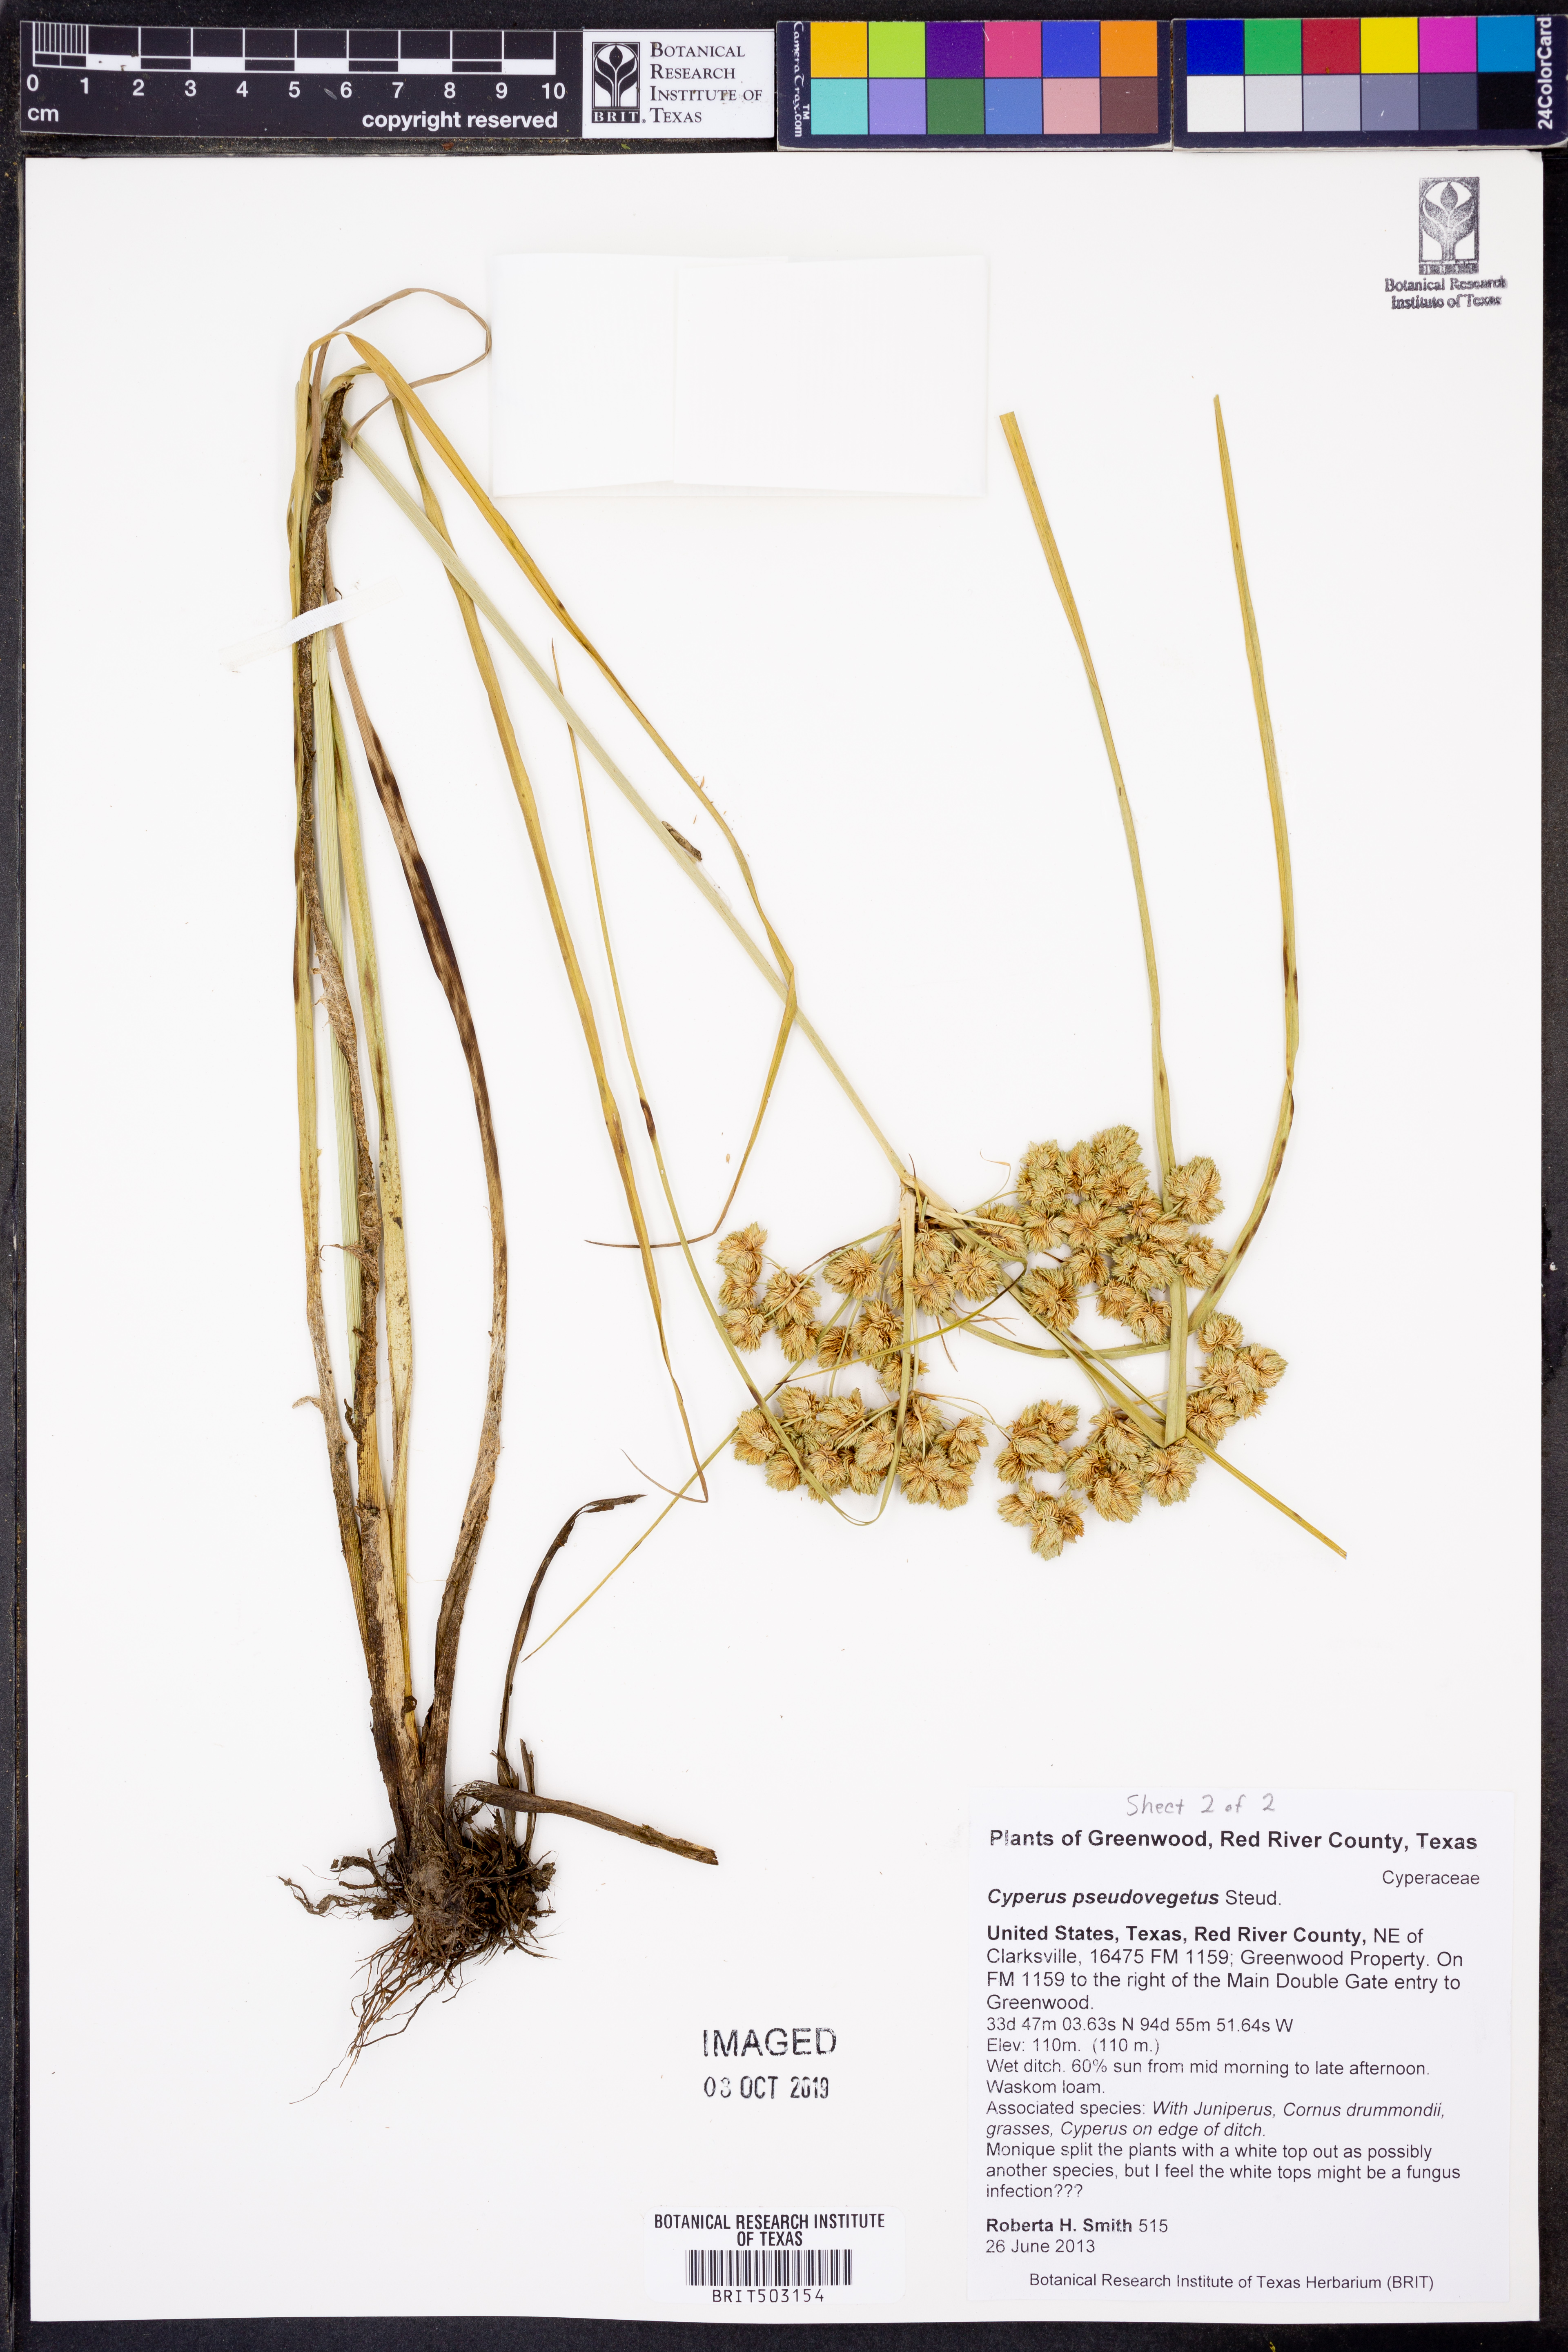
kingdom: Plantae
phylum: Tracheophyta
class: Liliopsida
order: Poales
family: Cyperaceae
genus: Cyperus
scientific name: Cyperus pseudovegetus
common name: Marsh flat sedge
